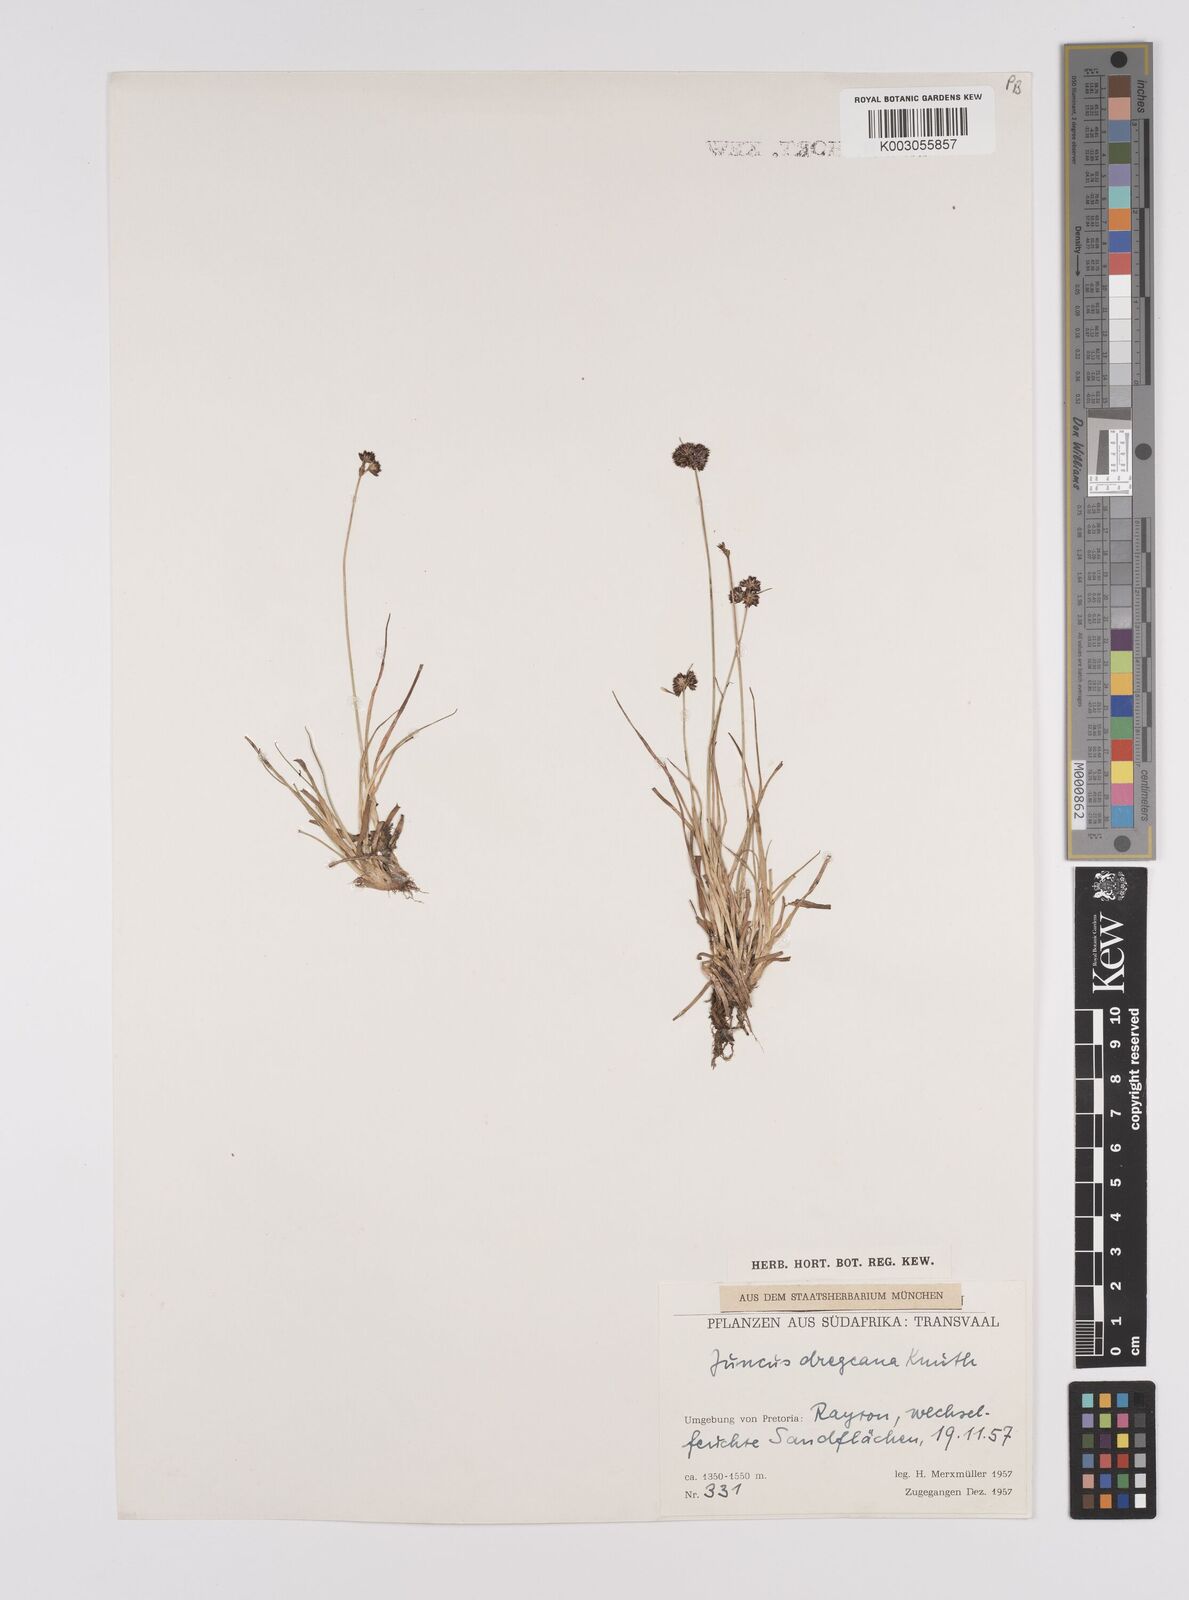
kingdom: Plantae
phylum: Tracheophyta
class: Liliopsida
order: Poales
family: Juncaceae
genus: Juncus
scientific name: Juncus dregeanus
